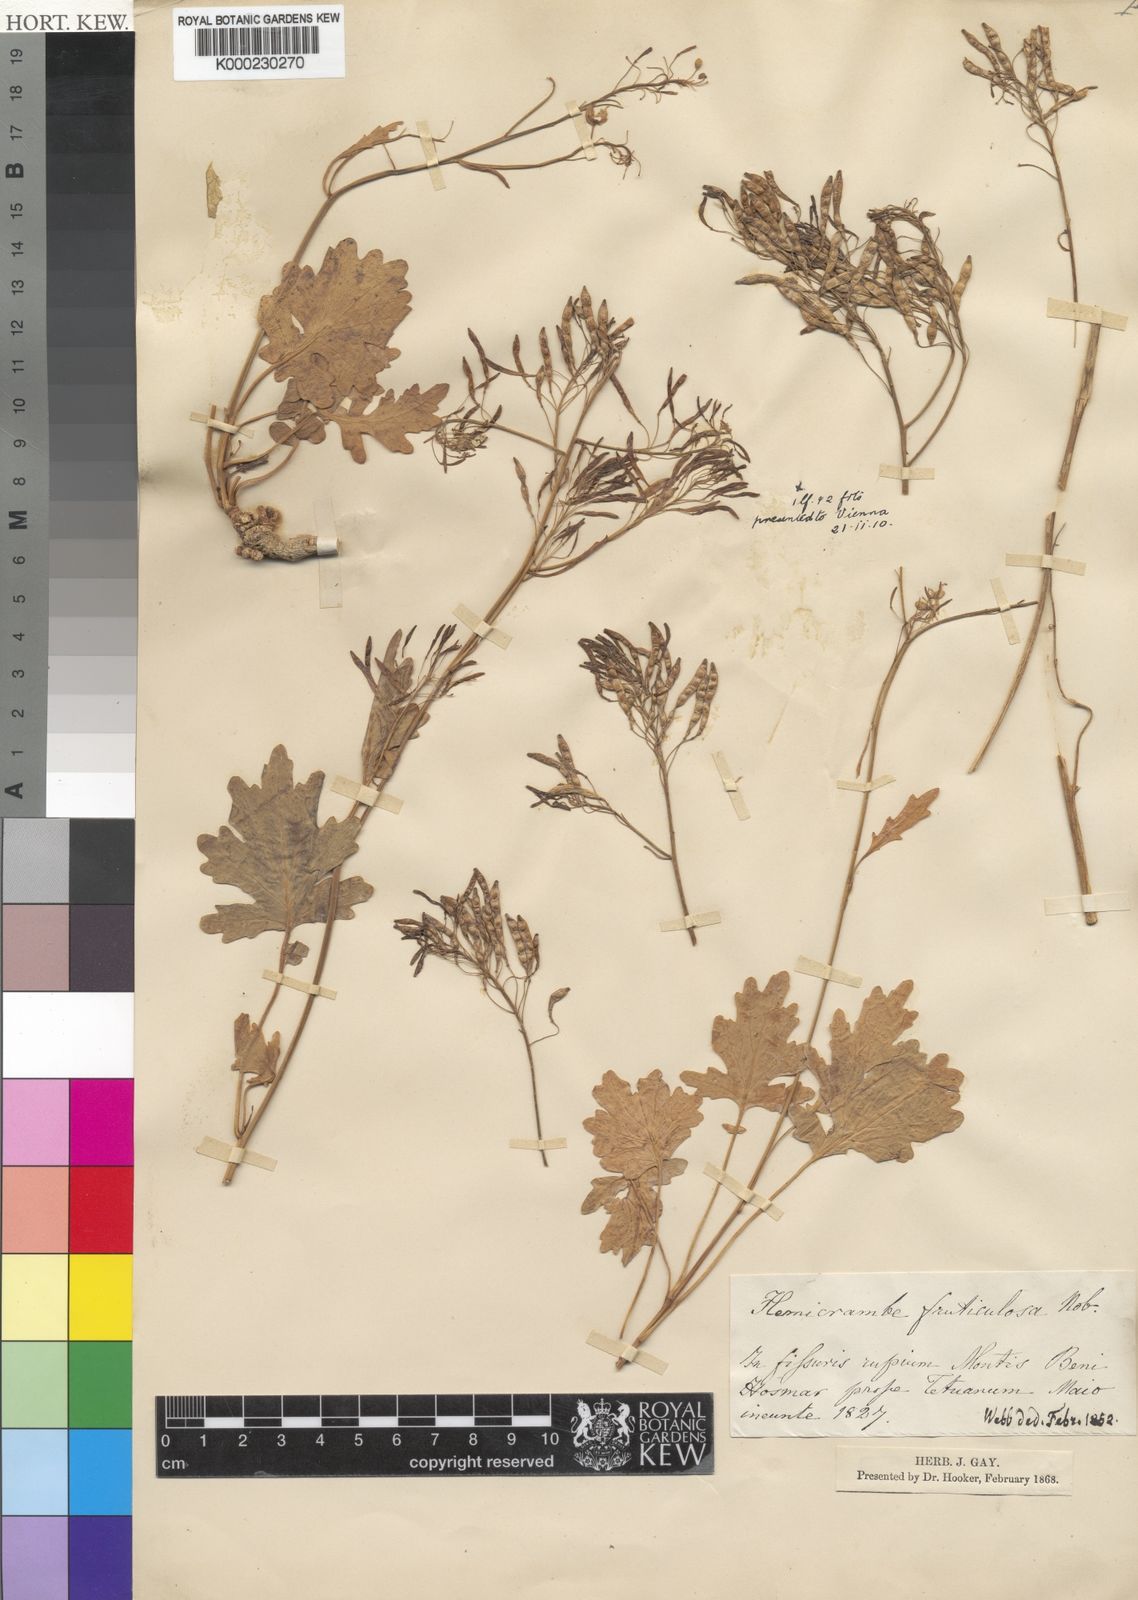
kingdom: Plantae
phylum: Tracheophyta
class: Magnoliopsida
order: Brassicales
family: Brassicaceae
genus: Raffenaldia
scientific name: Raffenaldia
